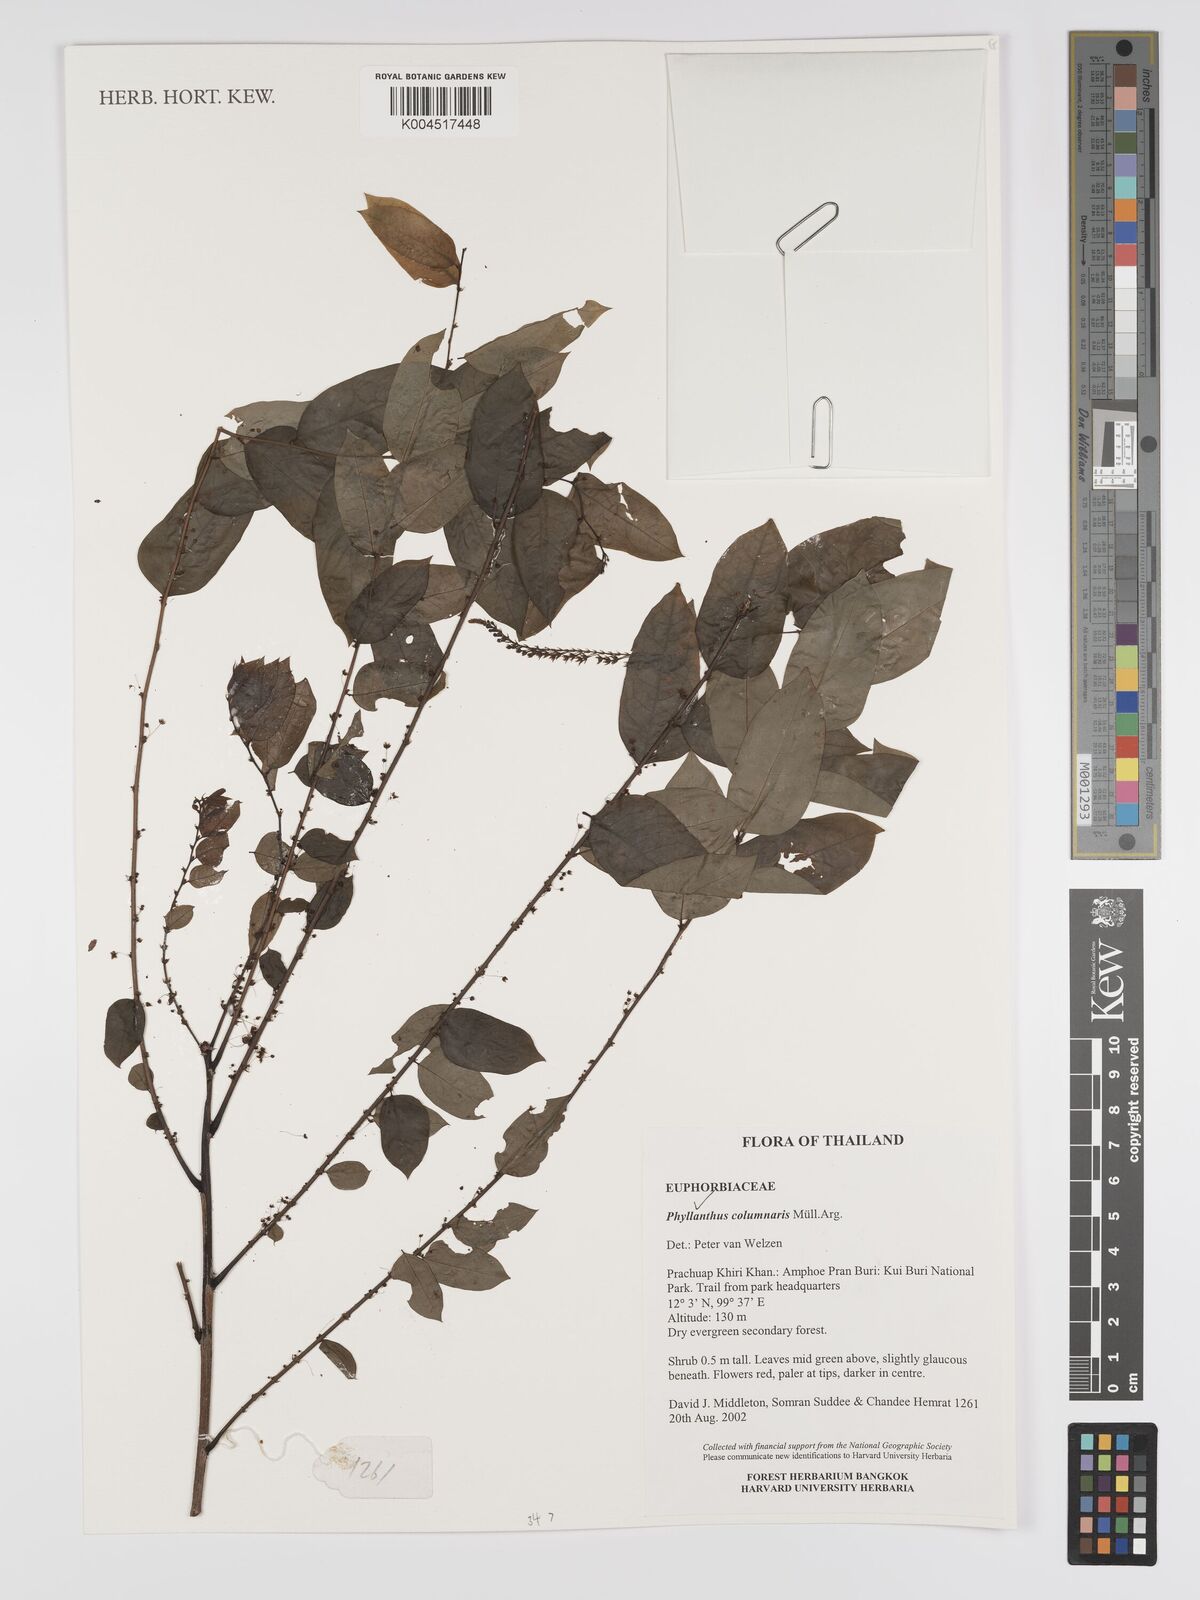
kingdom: Plantae
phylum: Tracheophyta
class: Magnoliopsida
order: Malpighiales
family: Phyllanthaceae
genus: Phyllanthus
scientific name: Phyllanthus
